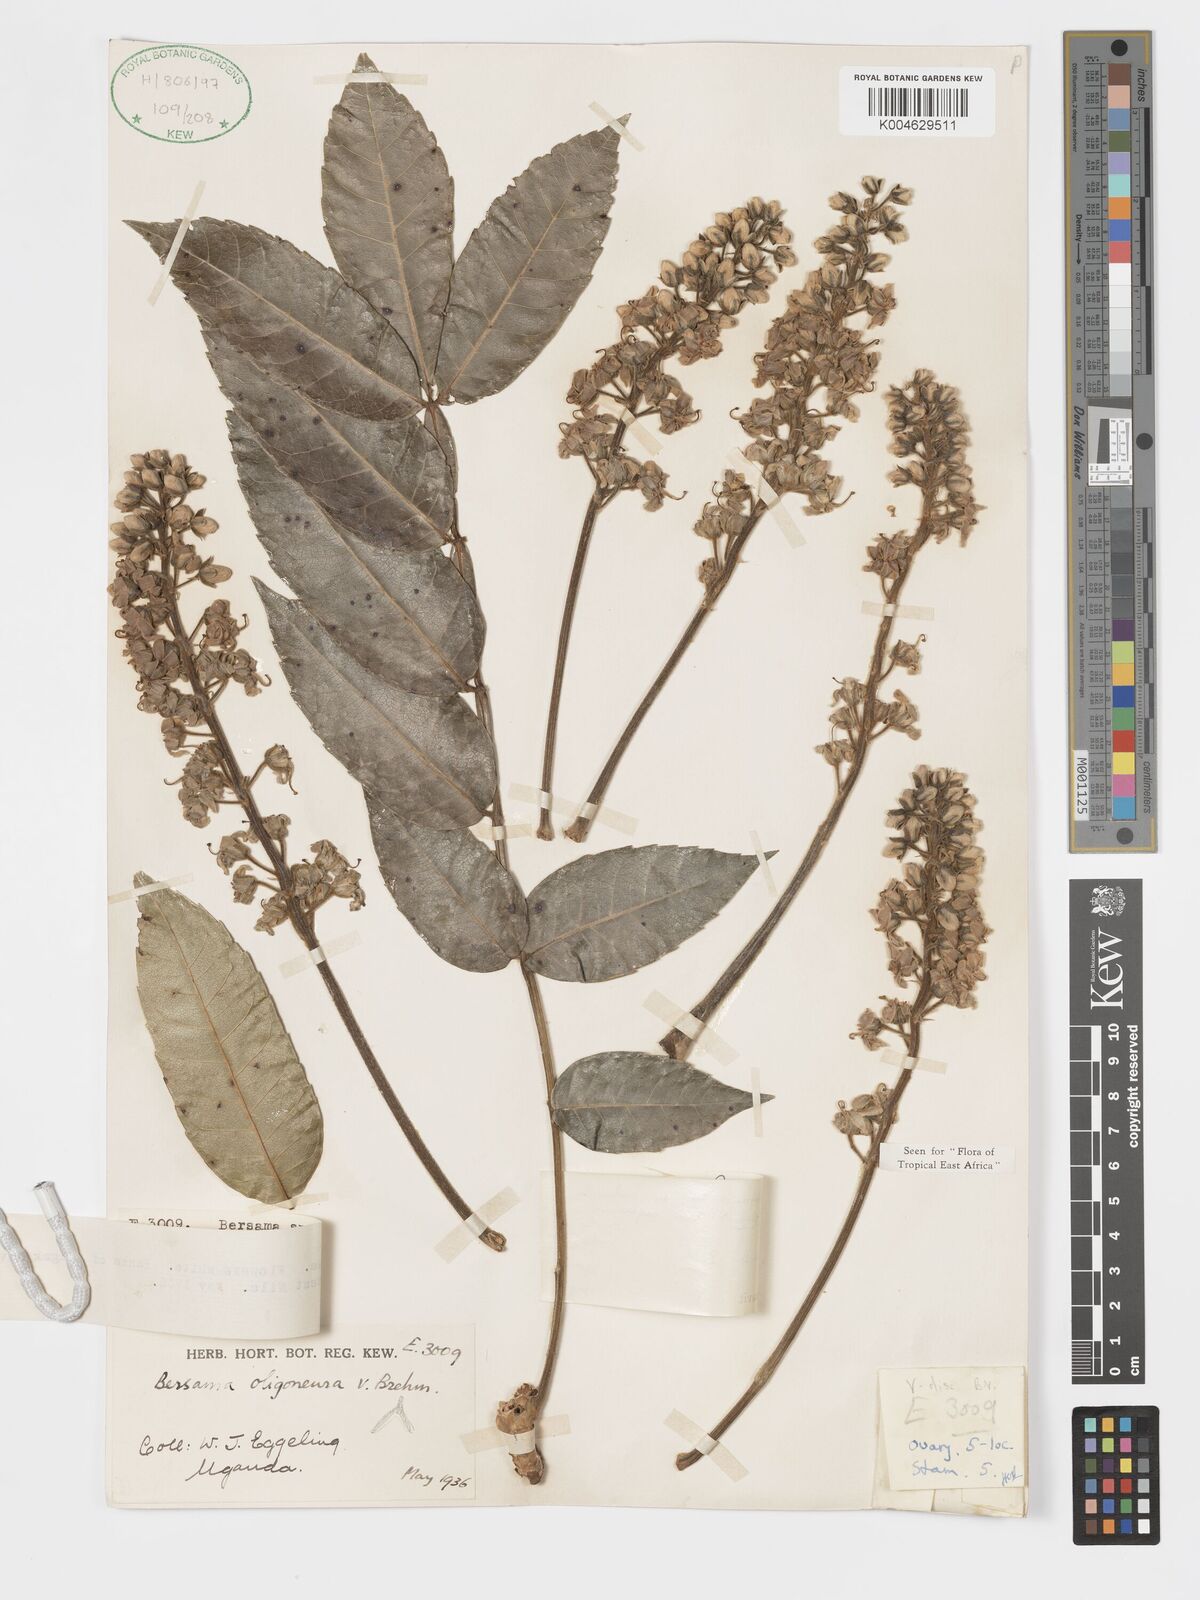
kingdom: Plantae
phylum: Tracheophyta
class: Magnoliopsida
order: Geraniales
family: Francoaceae
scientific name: Francoaceae
